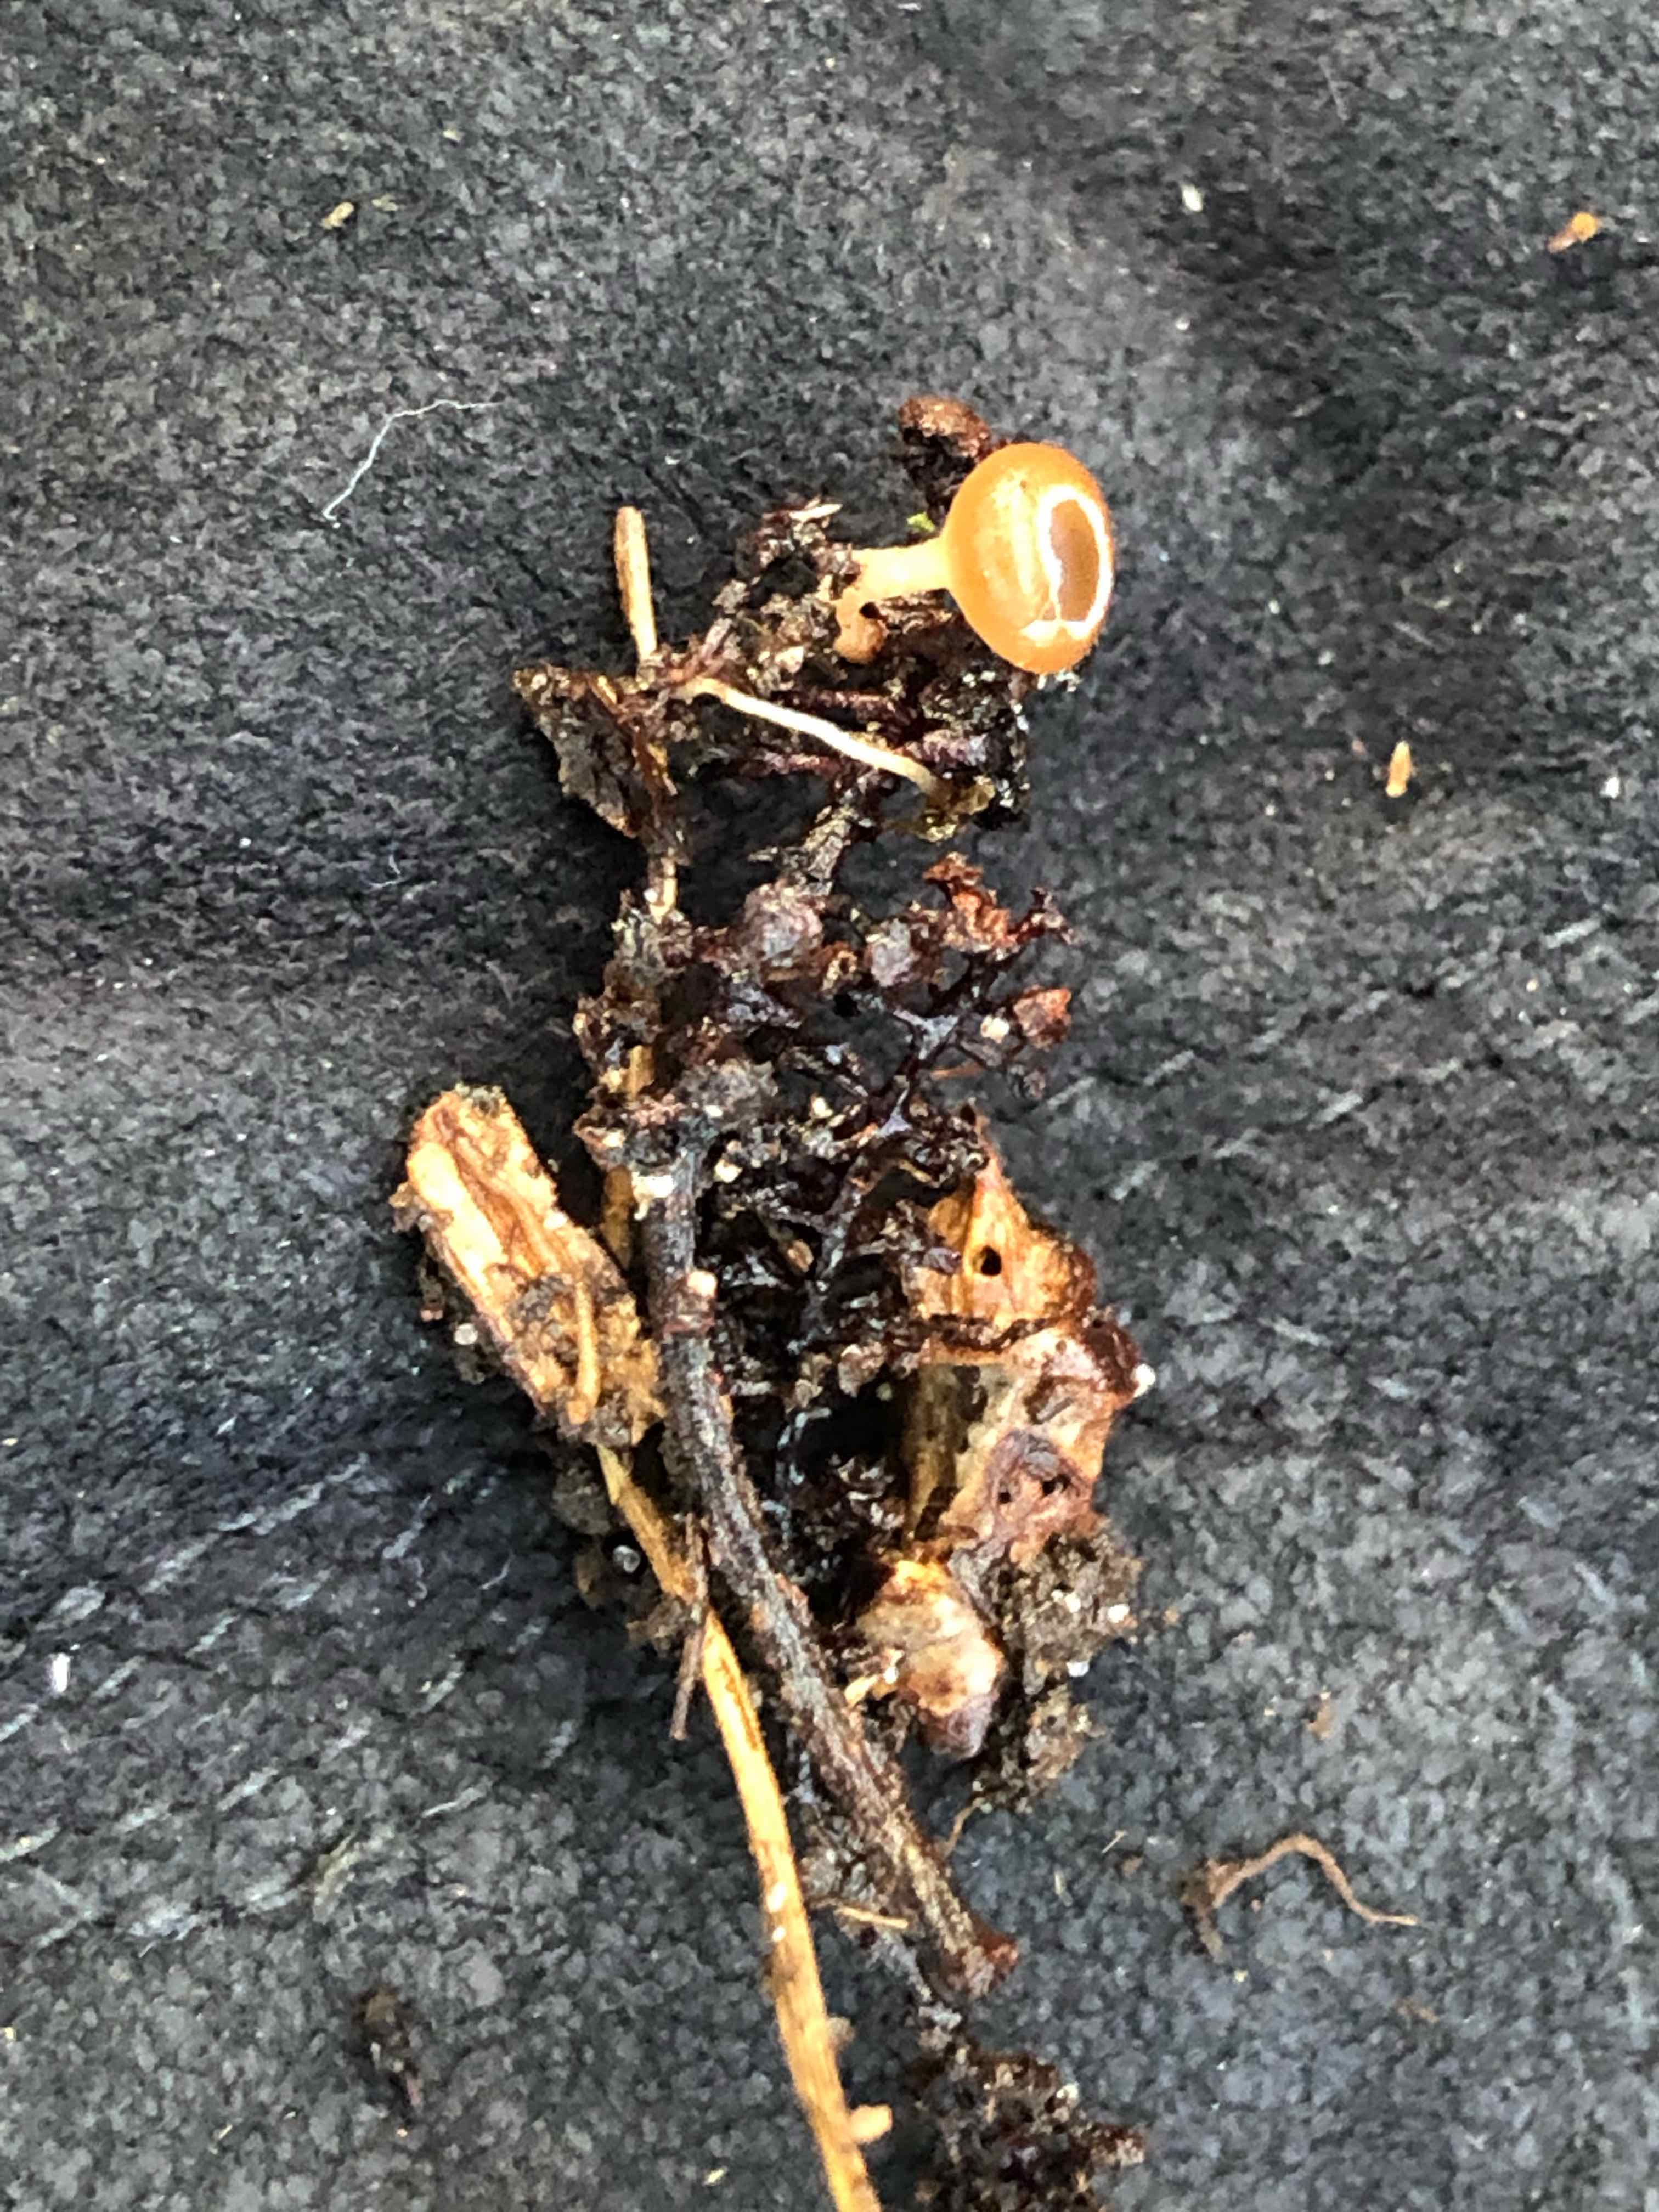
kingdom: Fungi
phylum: Ascomycota
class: Leotiomycetes
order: Helotiales
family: Sclerotiniaceae
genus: Ciboria
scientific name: Ciboria amentacea
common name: ellerakle-knoldskive
